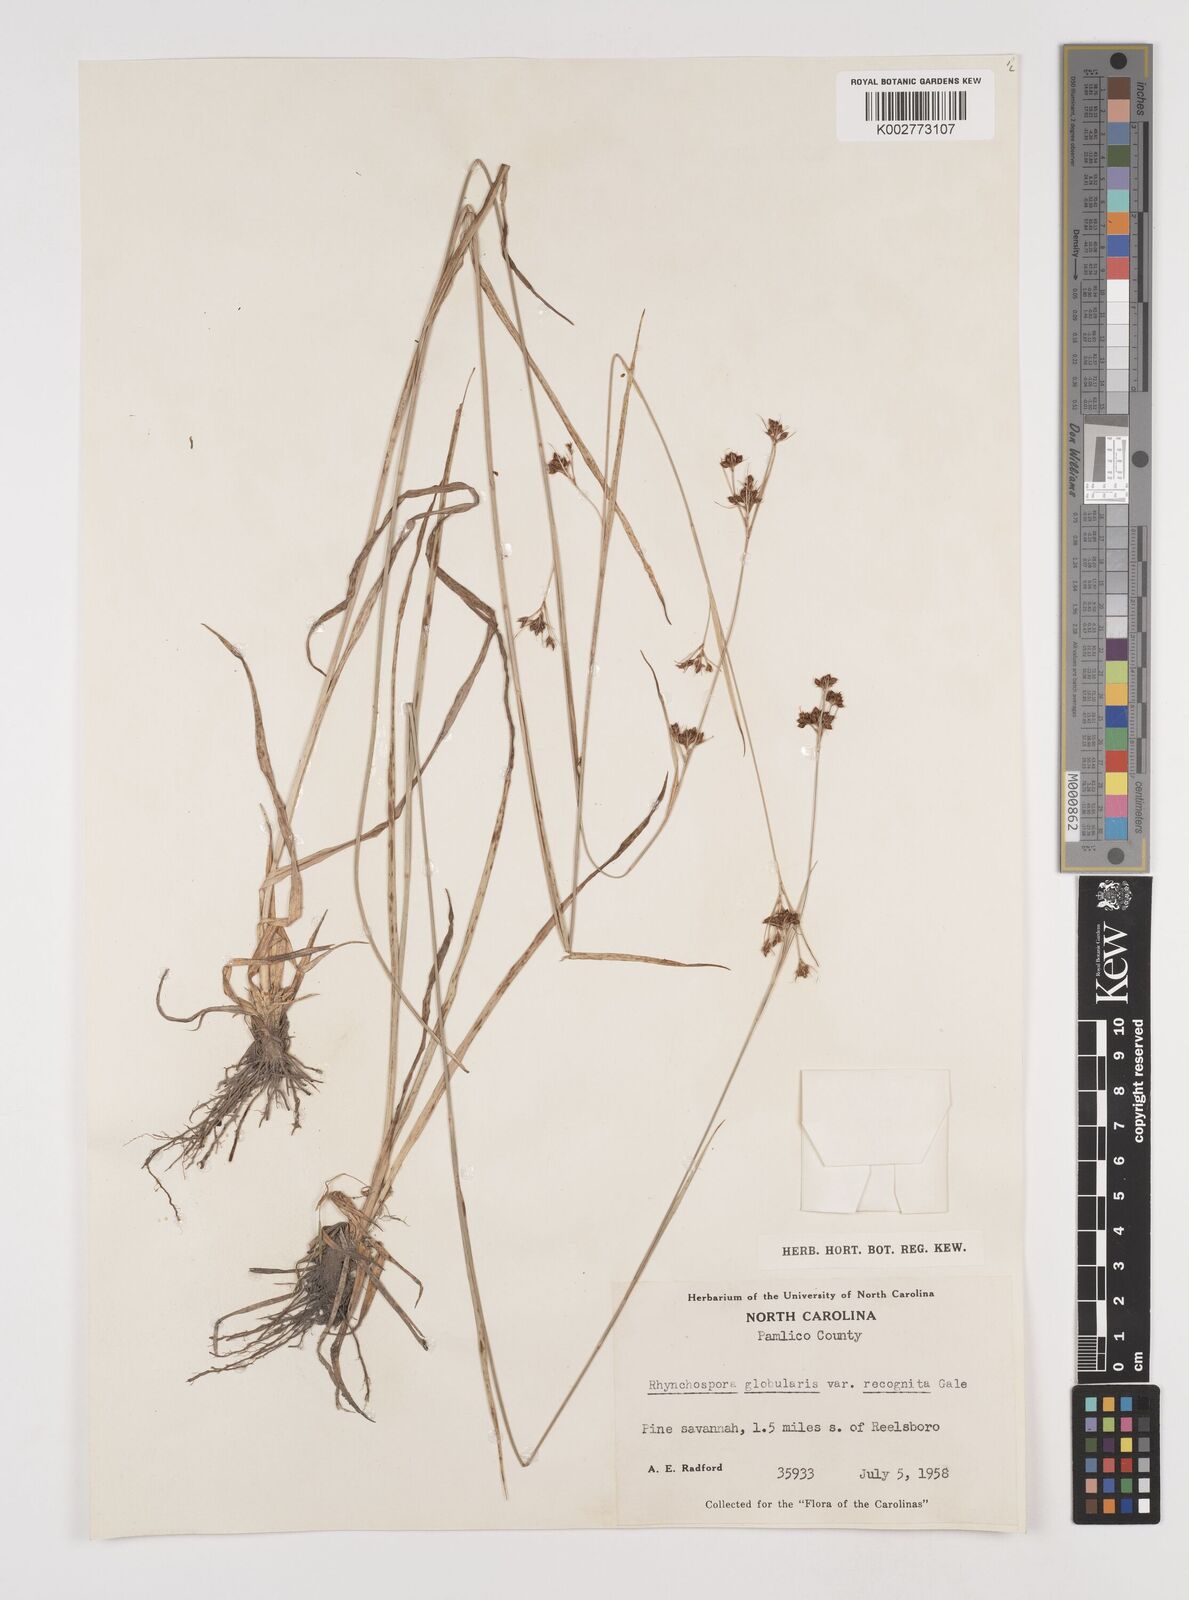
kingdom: Plantae
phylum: Tracheophyta
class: Liliopsida
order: Poales
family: Cyperaceae
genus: Rhynchospora
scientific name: Rhynchospora recognita
